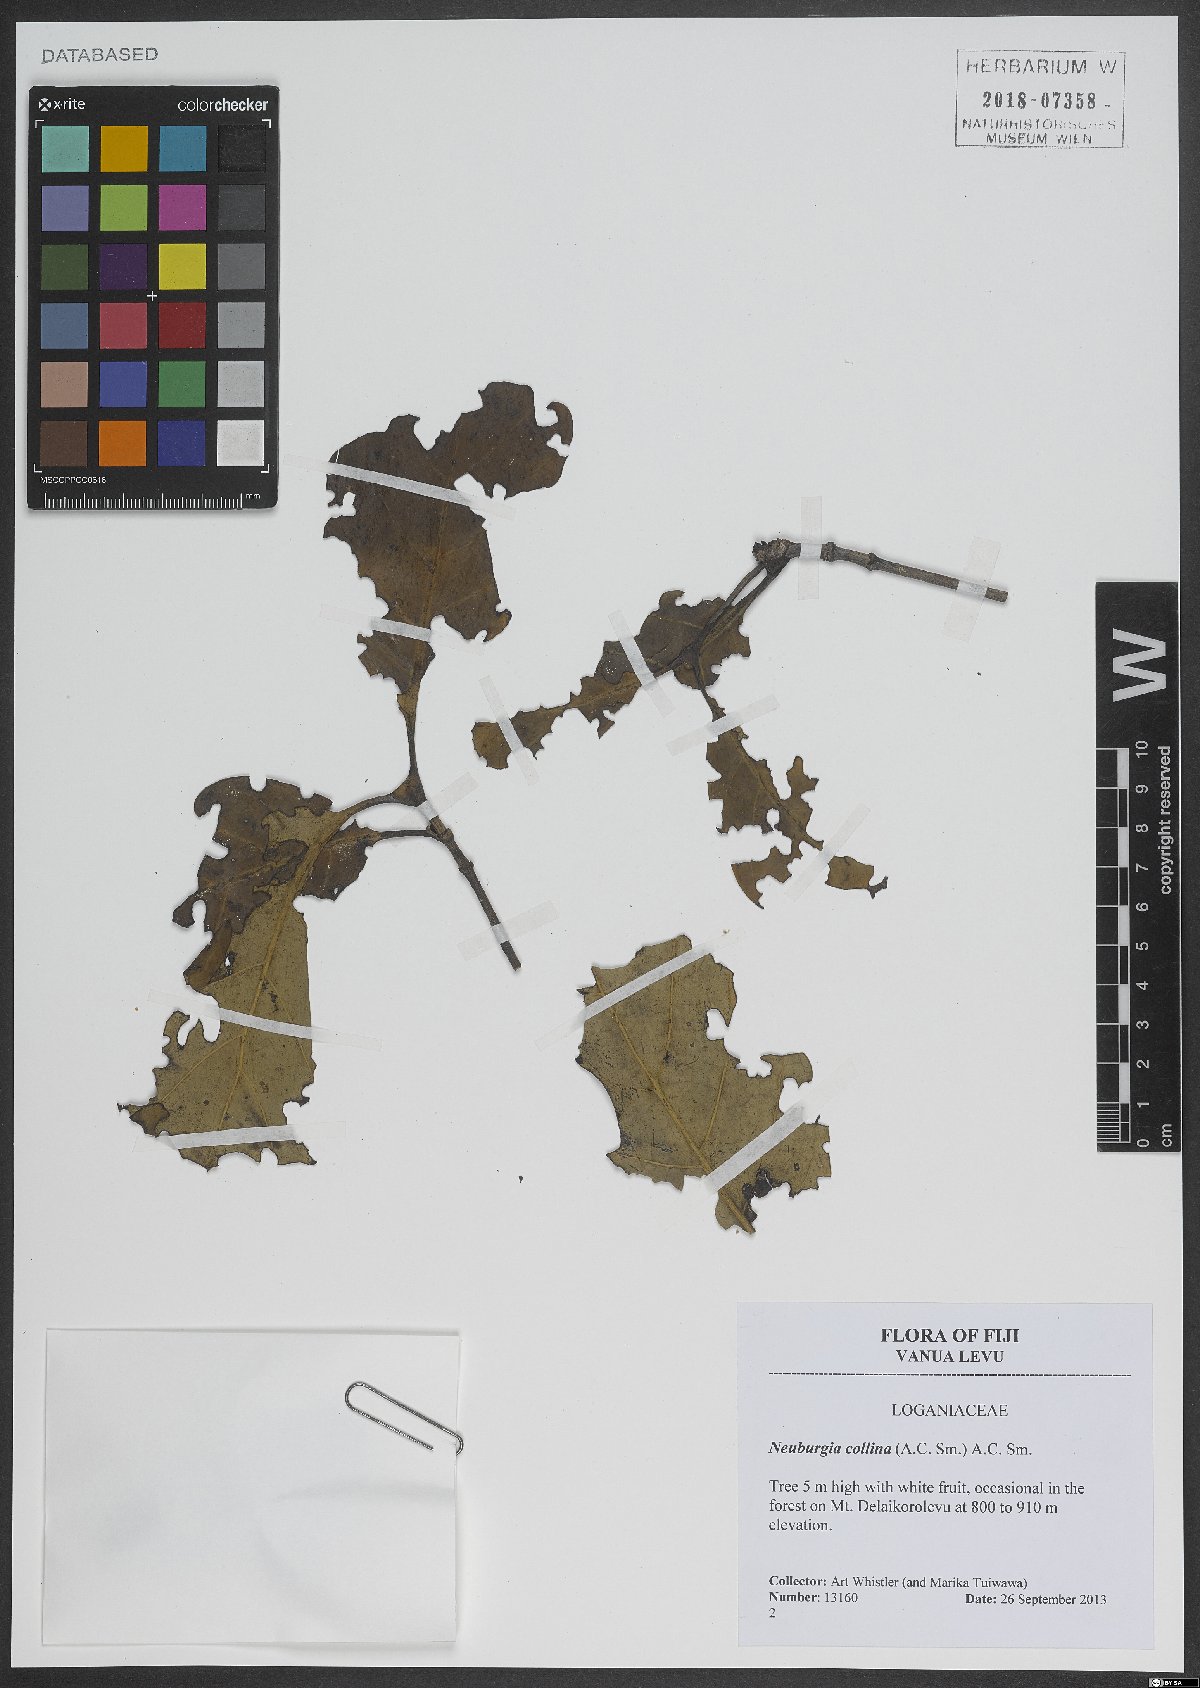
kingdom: Plantae
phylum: Tracheophyta
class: Magnoliopsida
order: Gentianales
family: Loganiaceae
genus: Neuburgia
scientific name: Neuburgia collina
